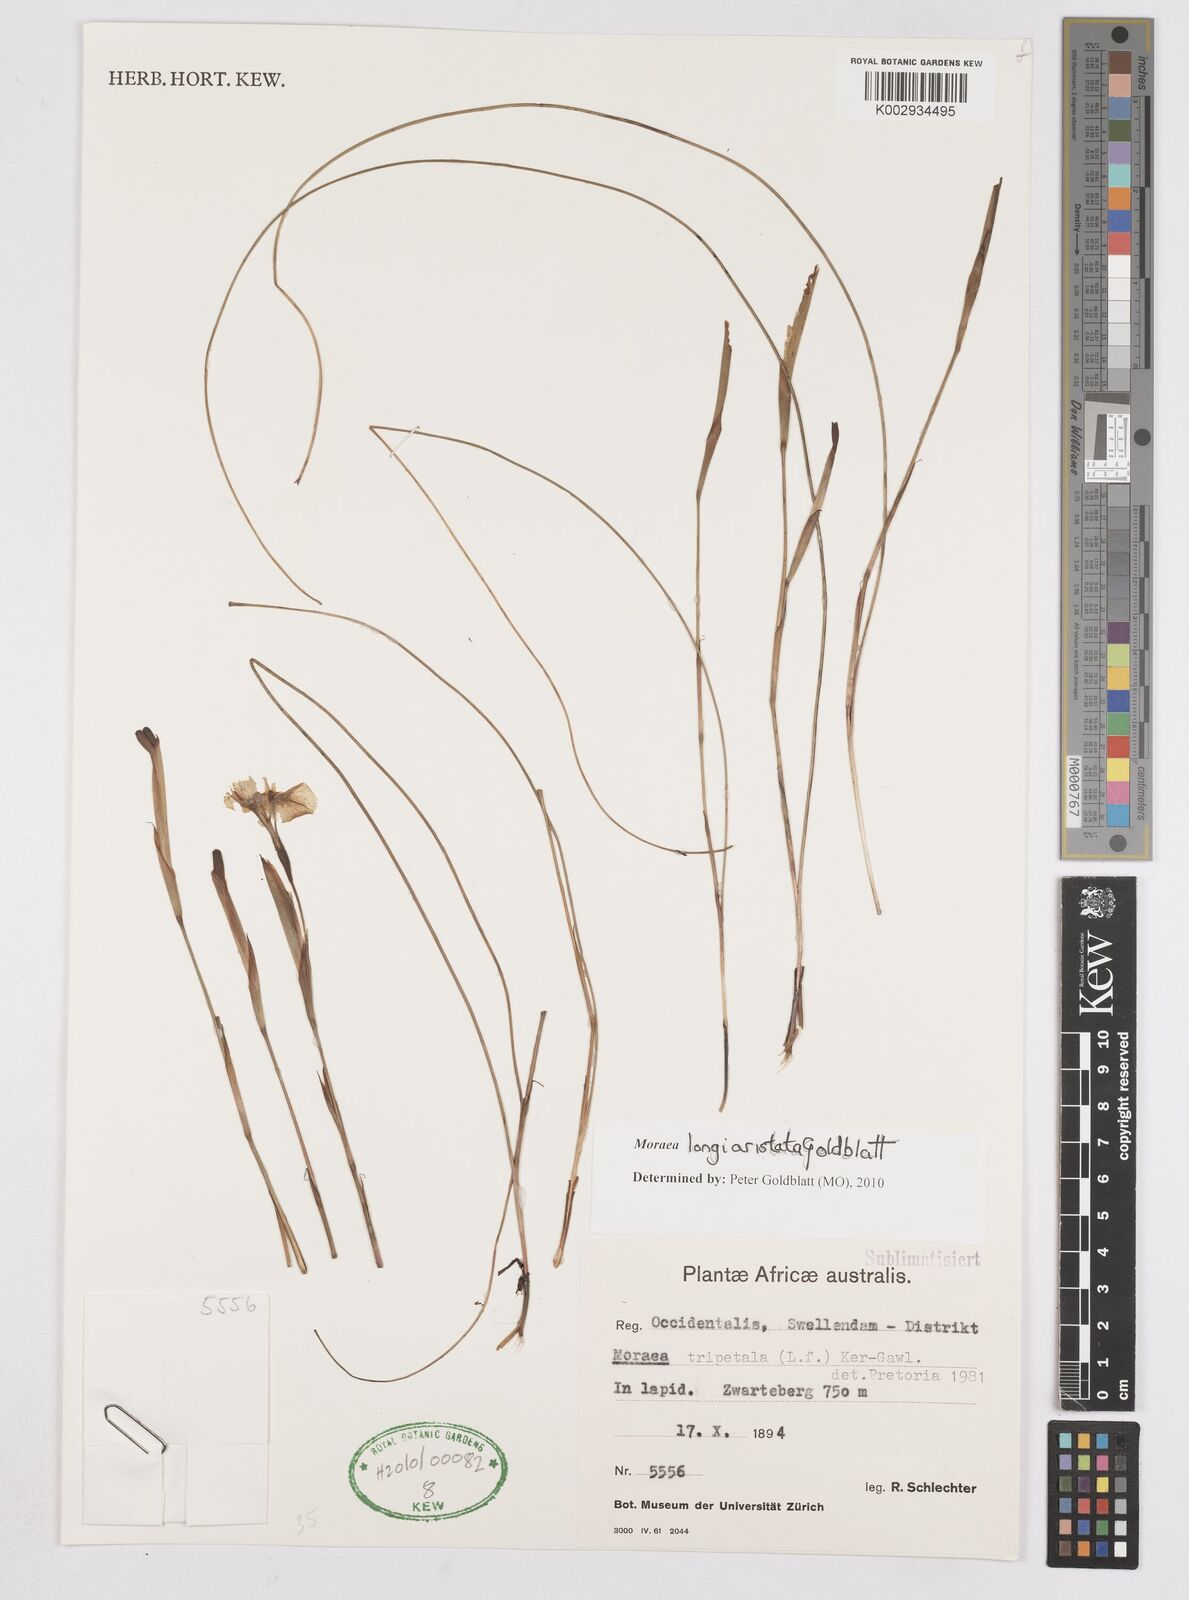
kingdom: Plantae
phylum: Tracheophyta
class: Liliopsida
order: Asparagales
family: Iridaceae
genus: Moraea
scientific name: Moraea longiaristata
